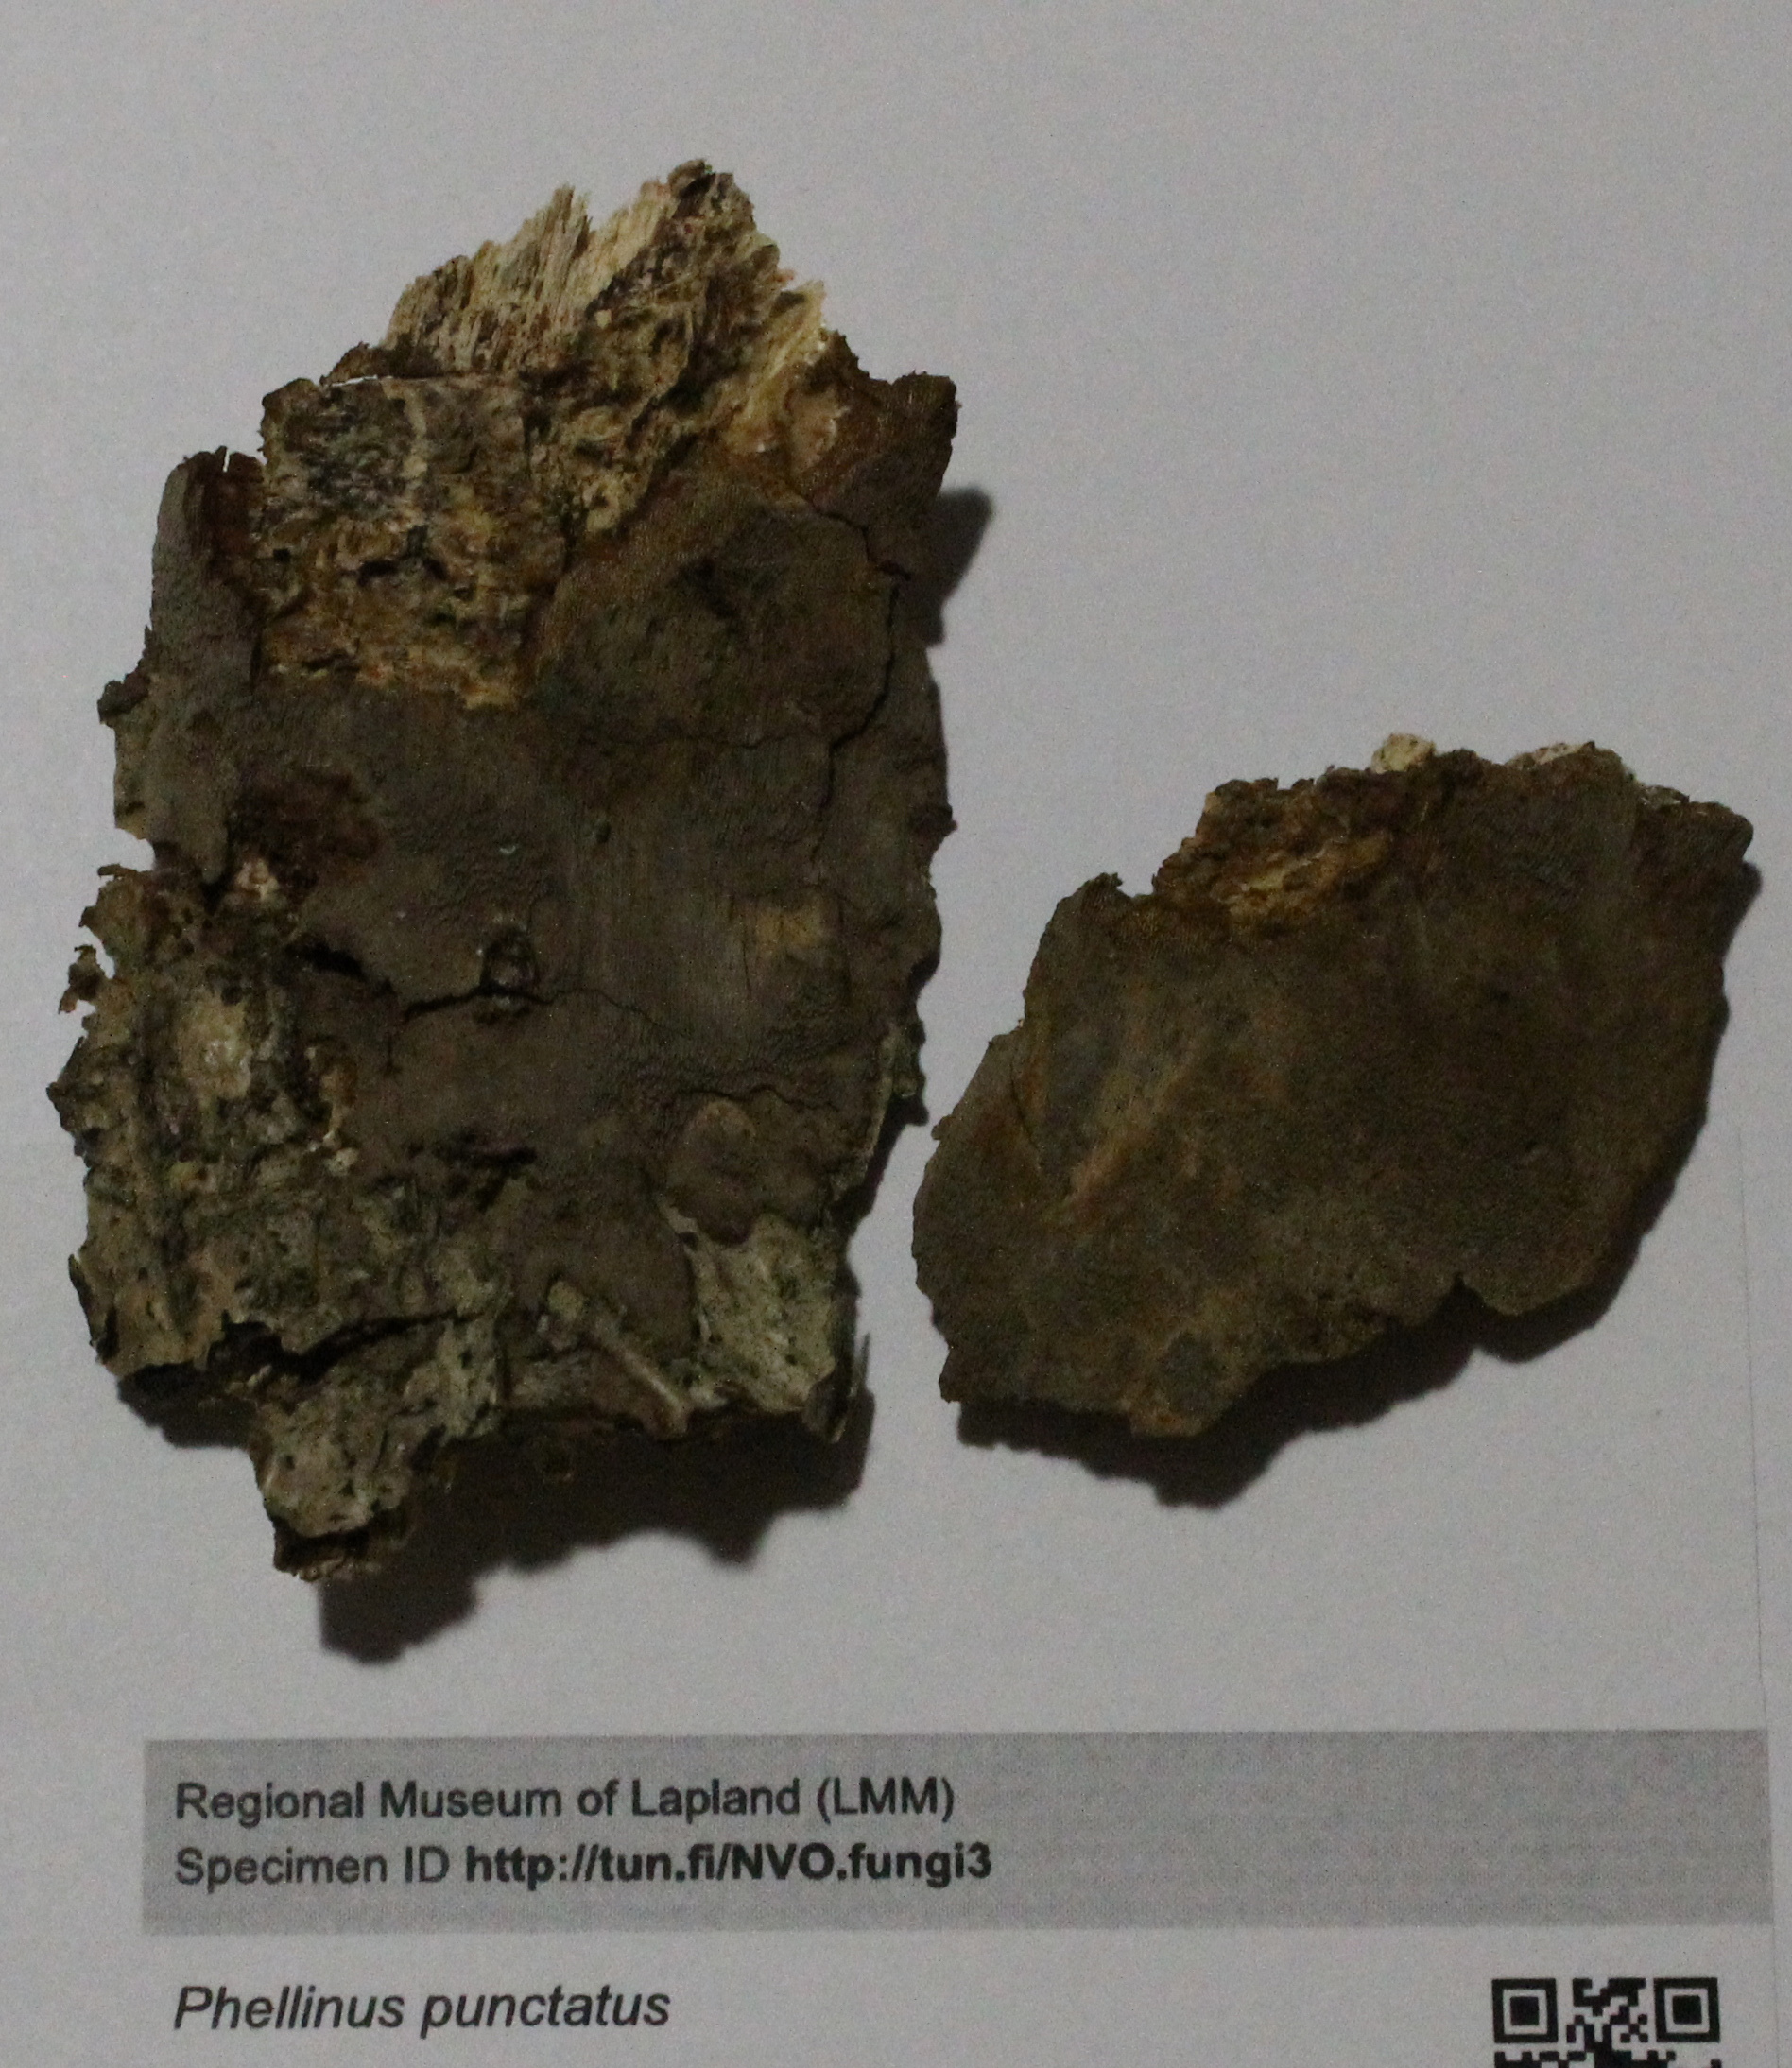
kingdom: Fungi
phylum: Basidiomycota
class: Agaricomycetes
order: Hymenochaetales
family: Hymenochaetaceae
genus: Fomitiporia
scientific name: Fomitiporia punctata
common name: Elbowpatch crust
